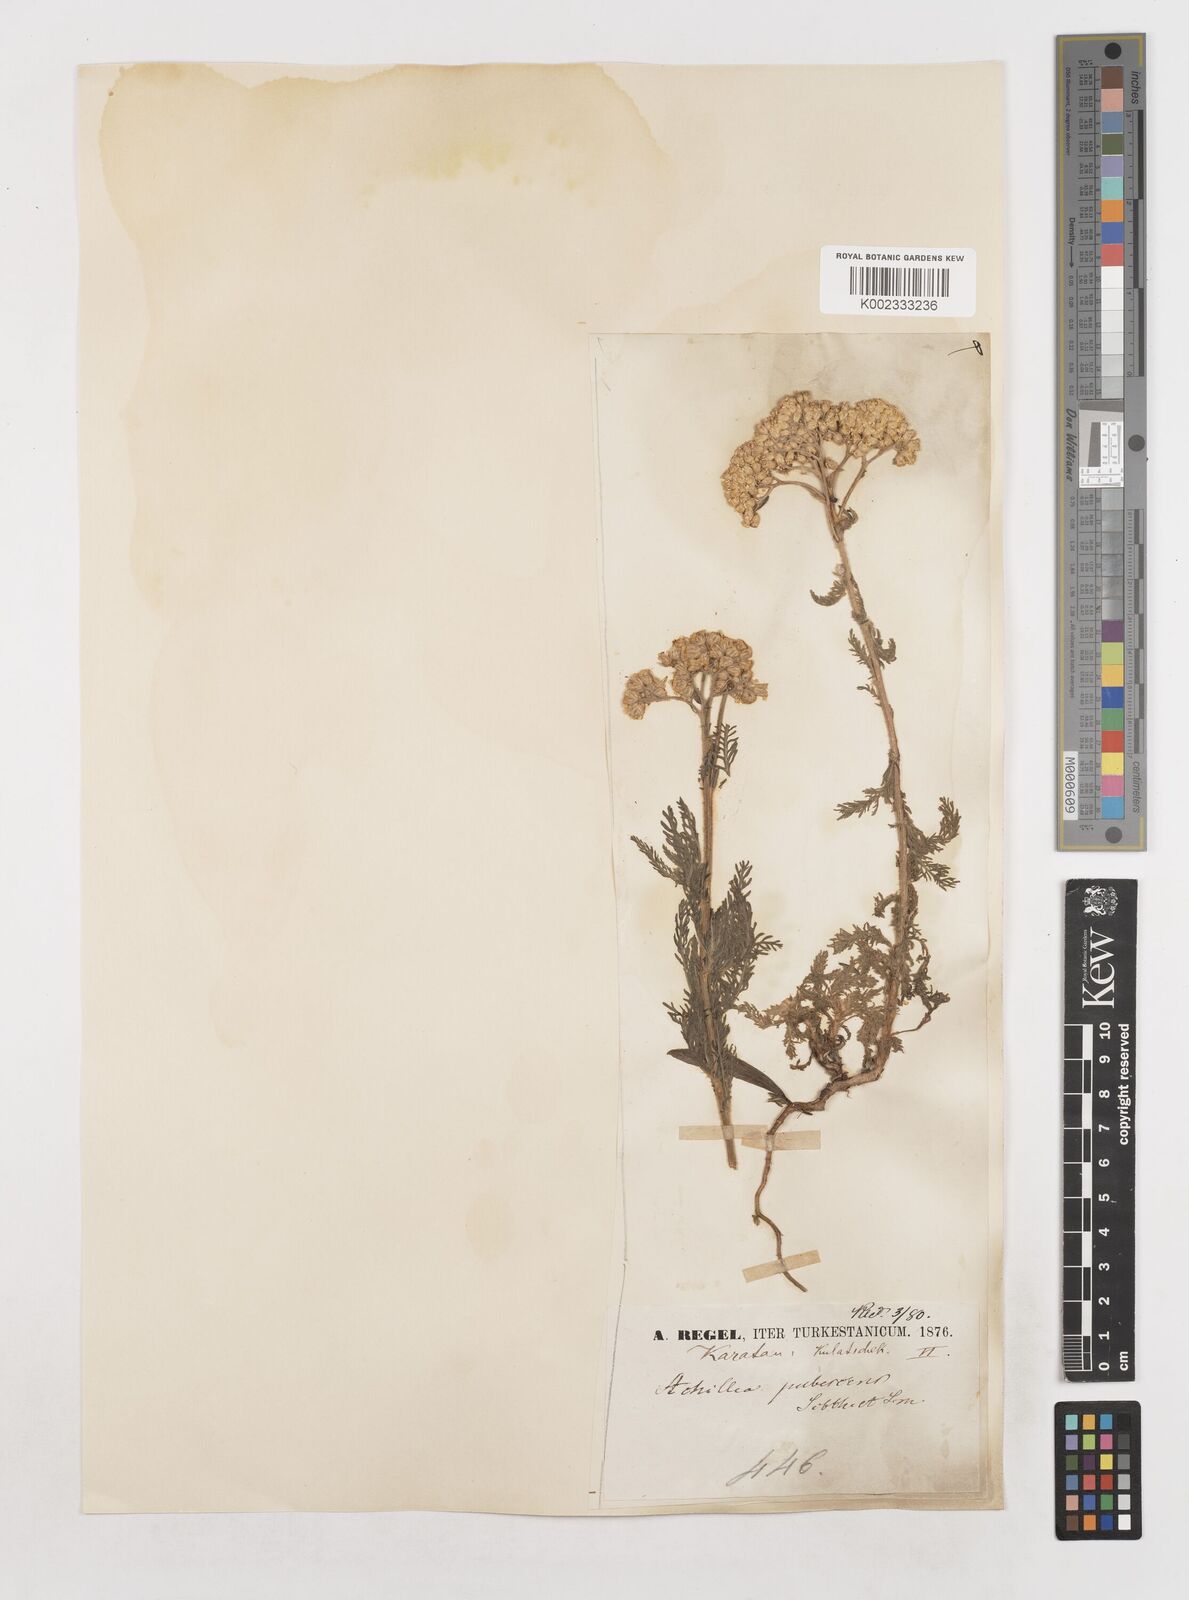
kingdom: Plantae
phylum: Tracheophyta
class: Magnoliopsida
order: Asterales
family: Asteraceae
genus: Achillea
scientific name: Achillea micrantha
